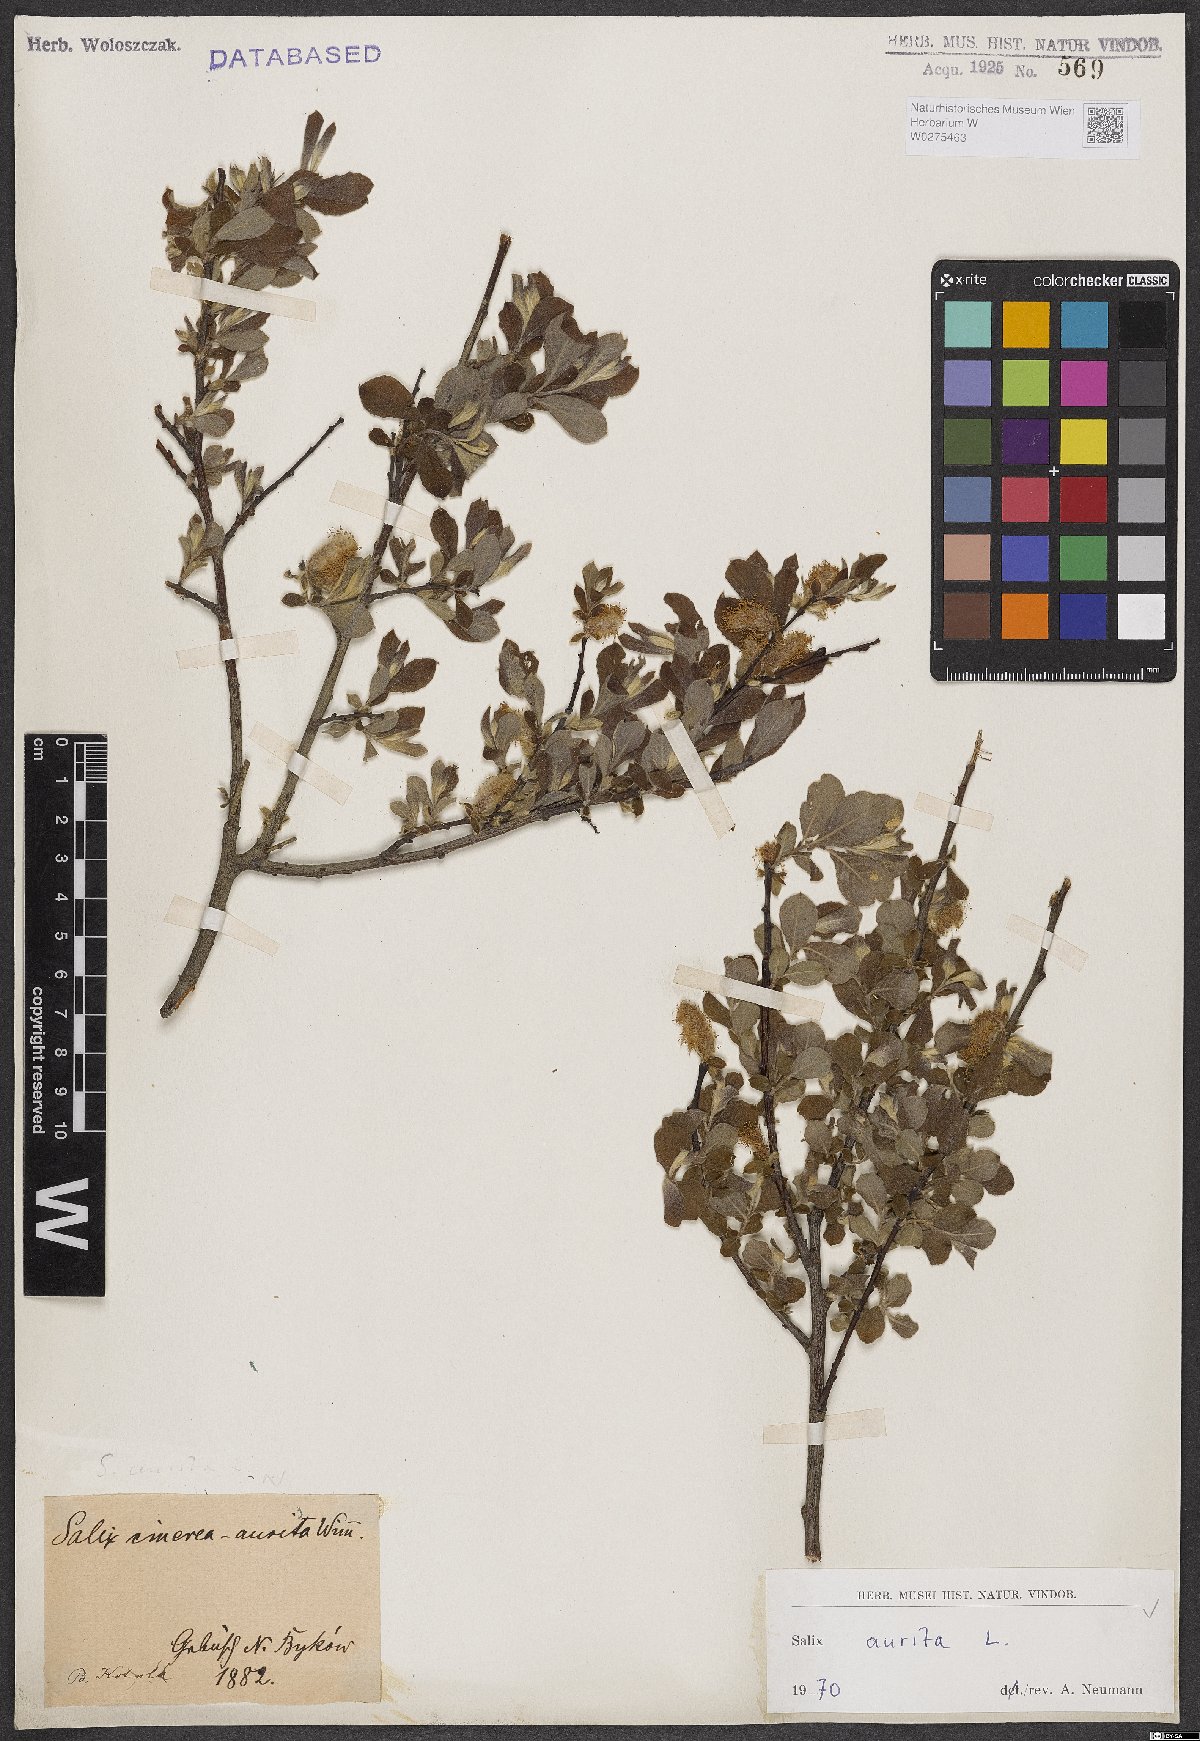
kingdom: Plantae
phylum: Tracheophyta
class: Magnoliopsida
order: Malpighiales
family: Salicaceae
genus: Salix
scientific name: Salix aurita
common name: Eared willow
